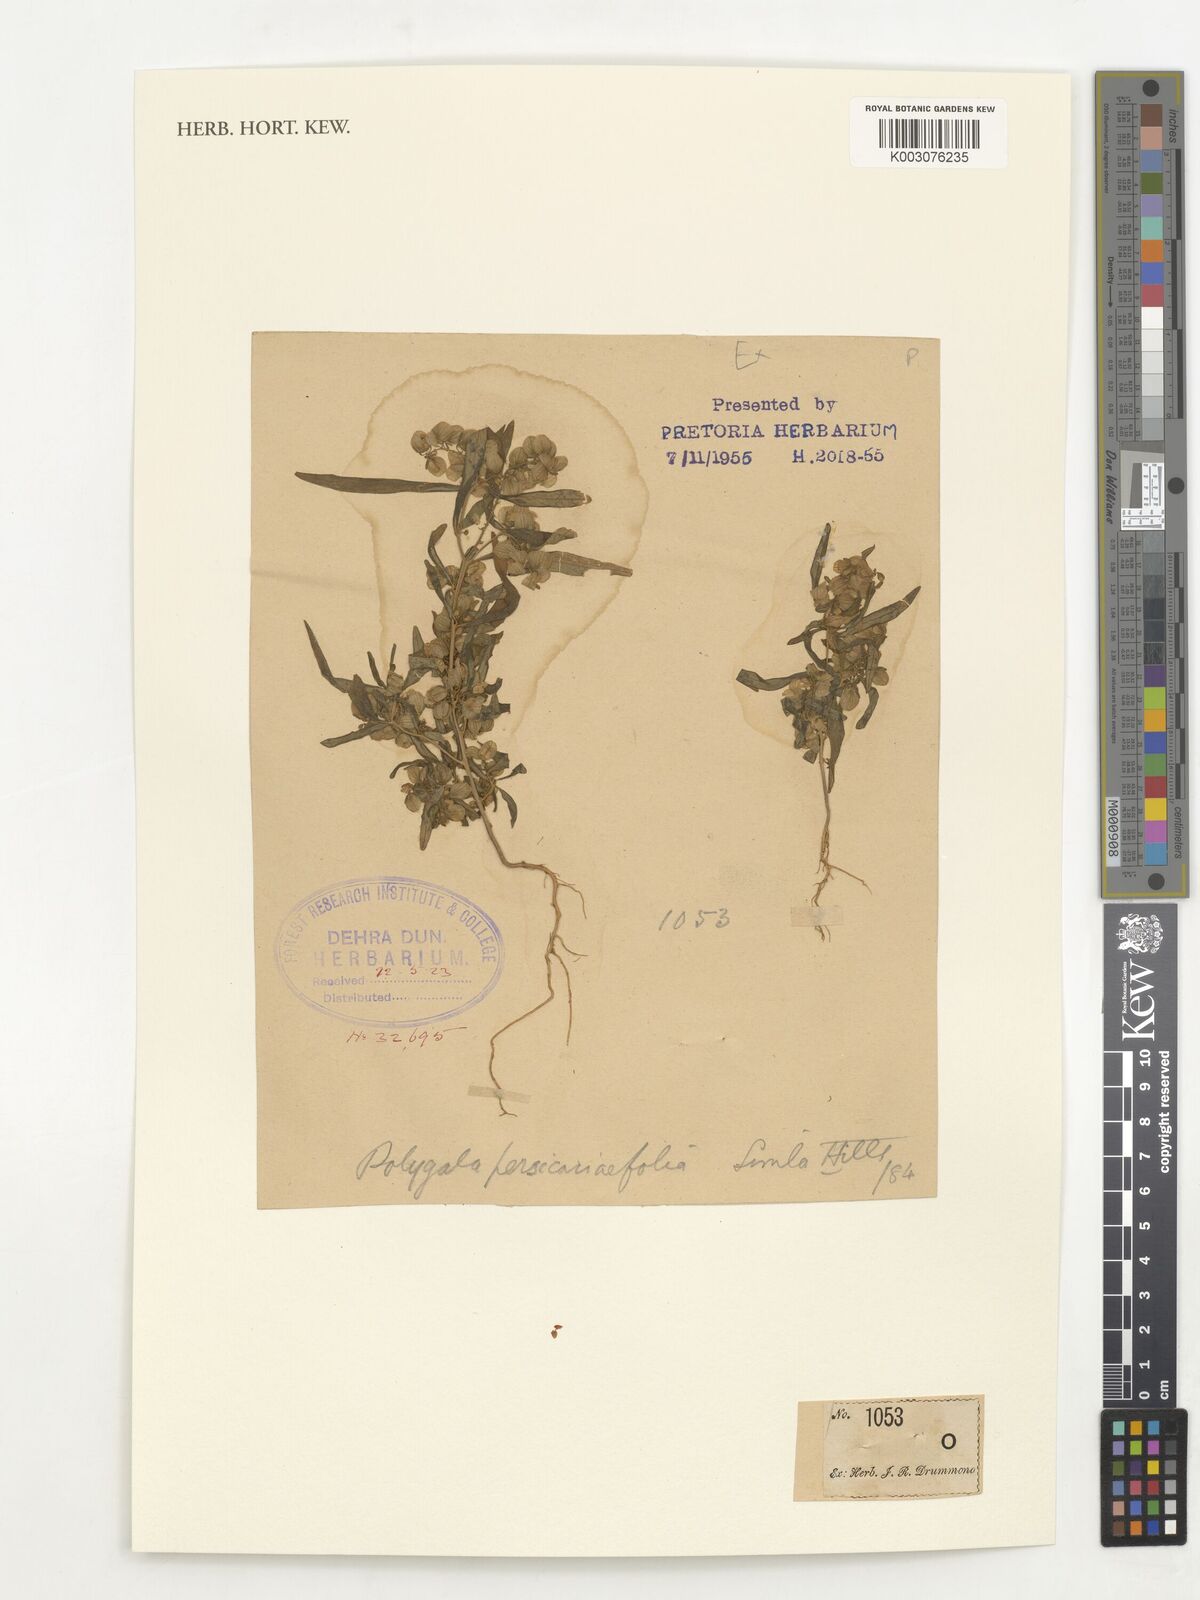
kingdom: Plantae
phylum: Tracheophyta
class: Magnoliopsida
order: Fabales
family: Polygalaceae
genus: Polygala
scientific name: Polygala
